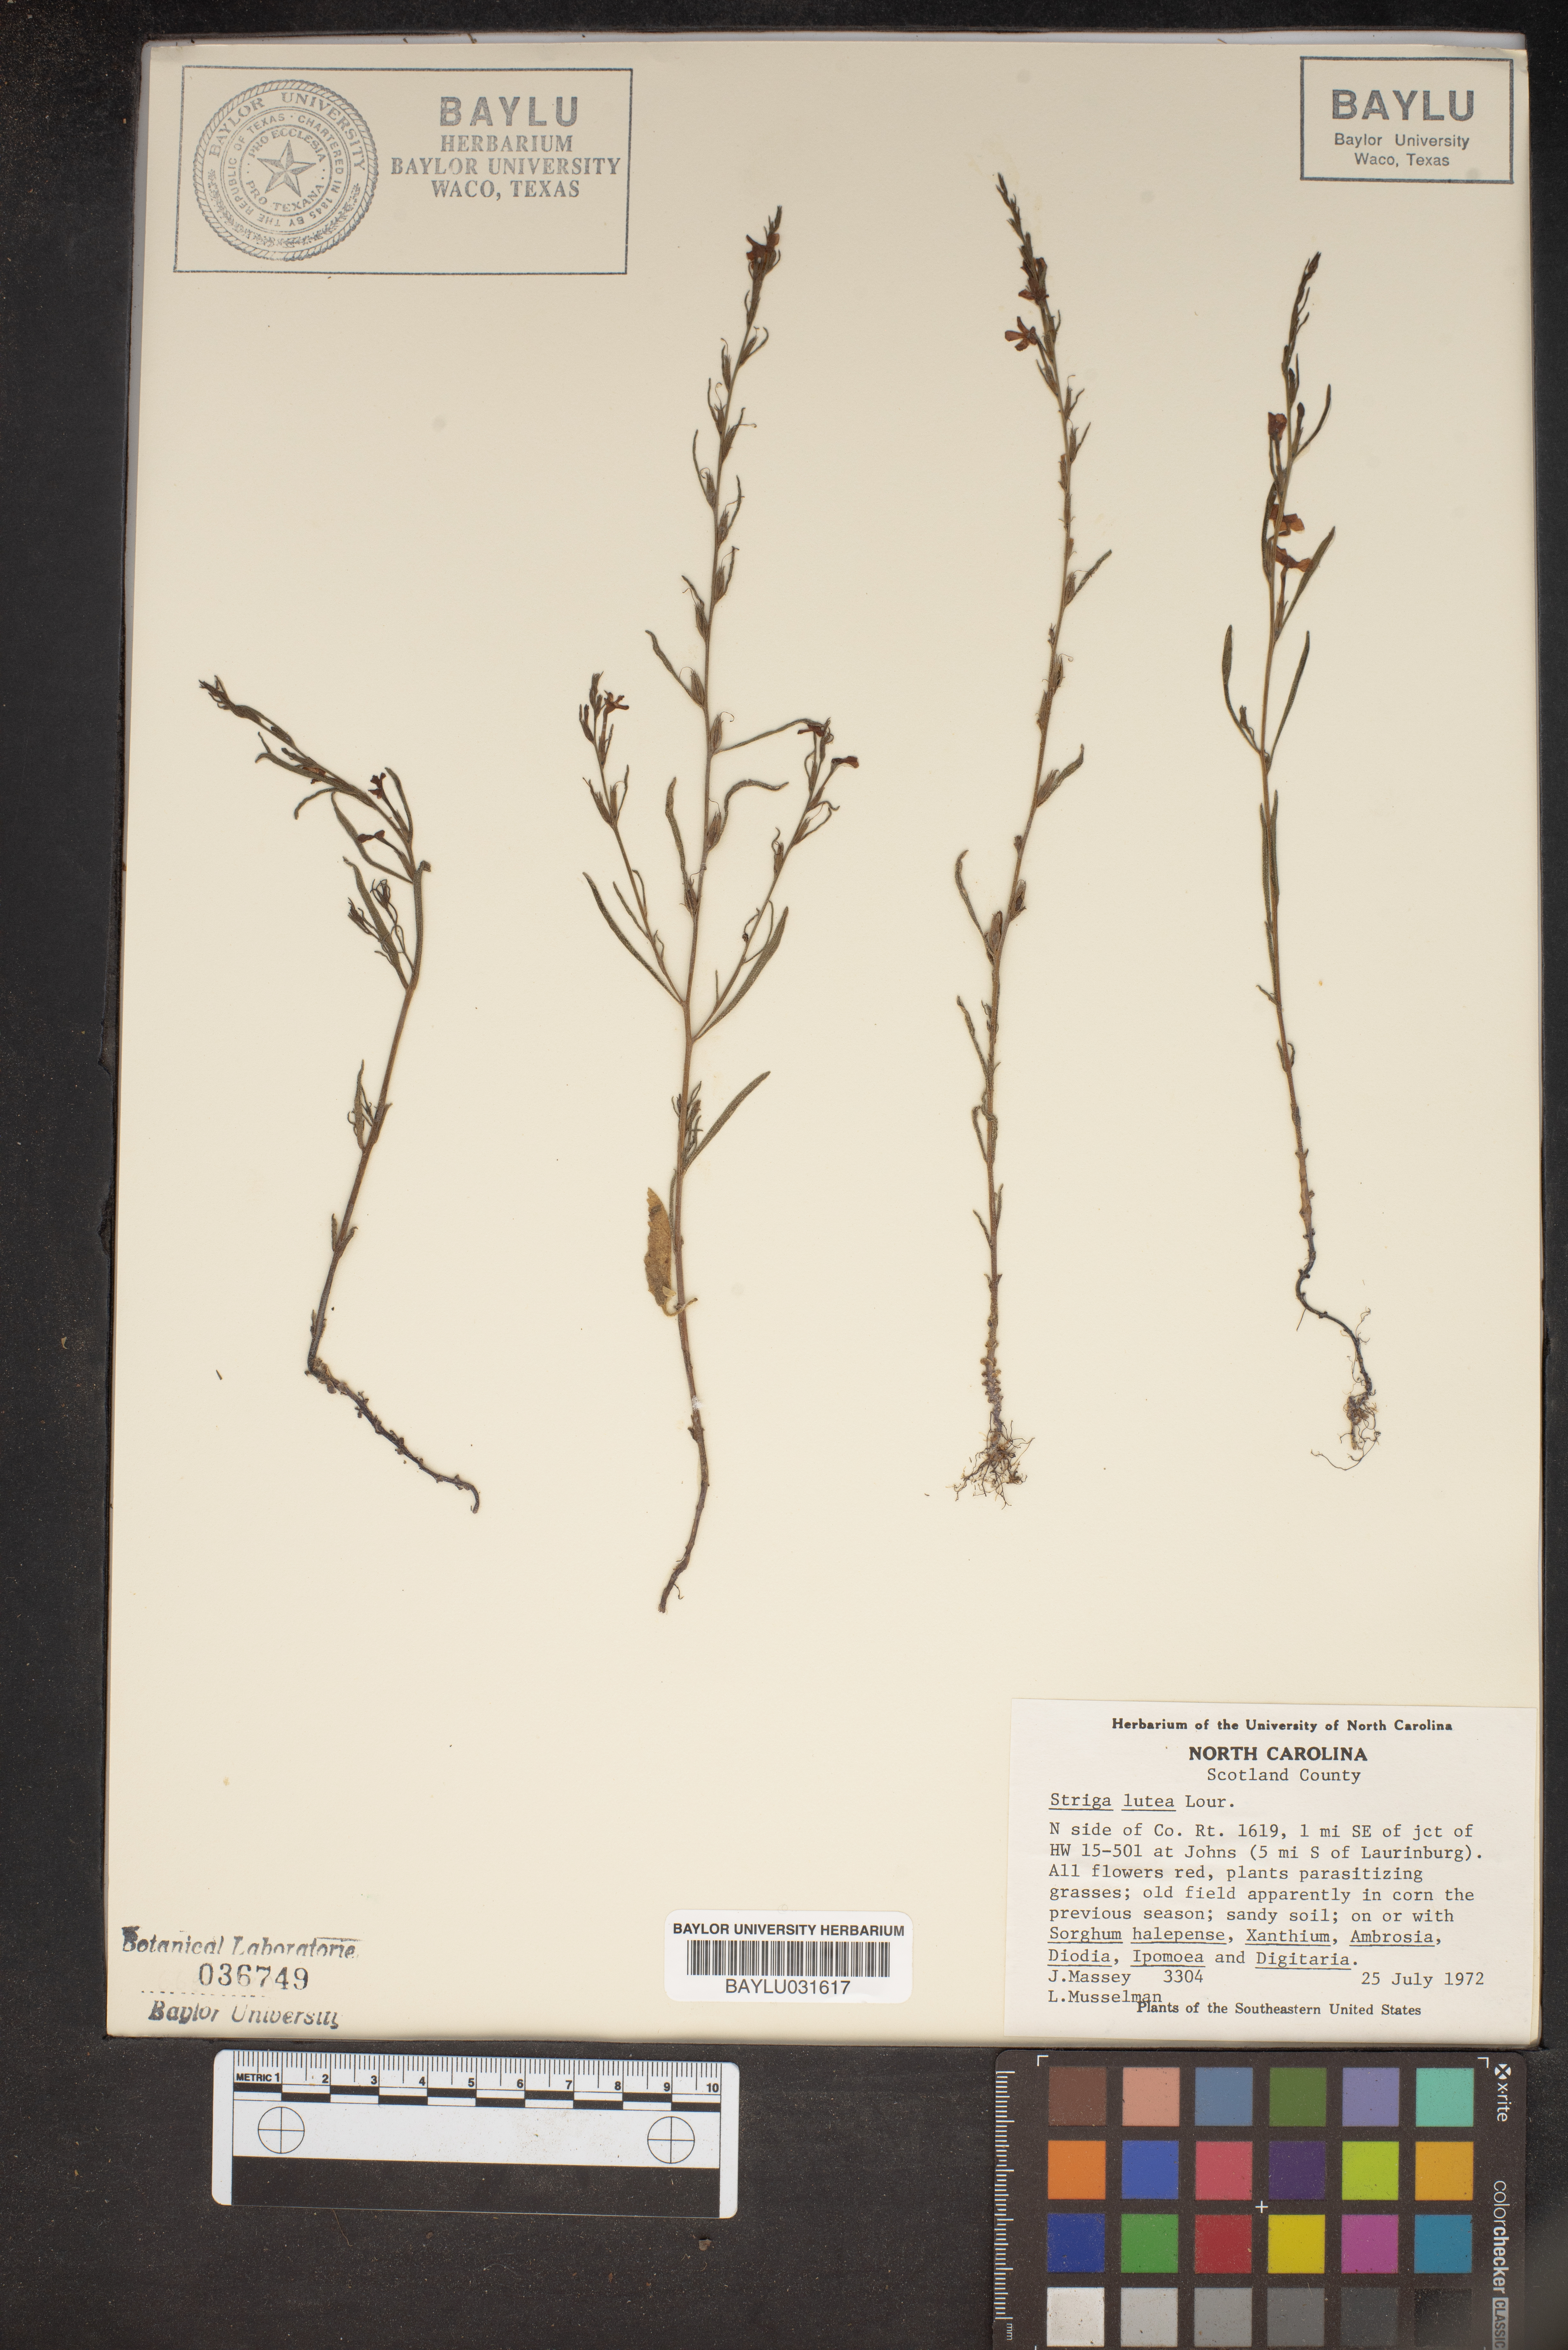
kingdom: Plantae
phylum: Tracheophyta
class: Magnoliopsida
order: Lamiales
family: Orobanchaceae
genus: Striga
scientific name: Striga lutea
